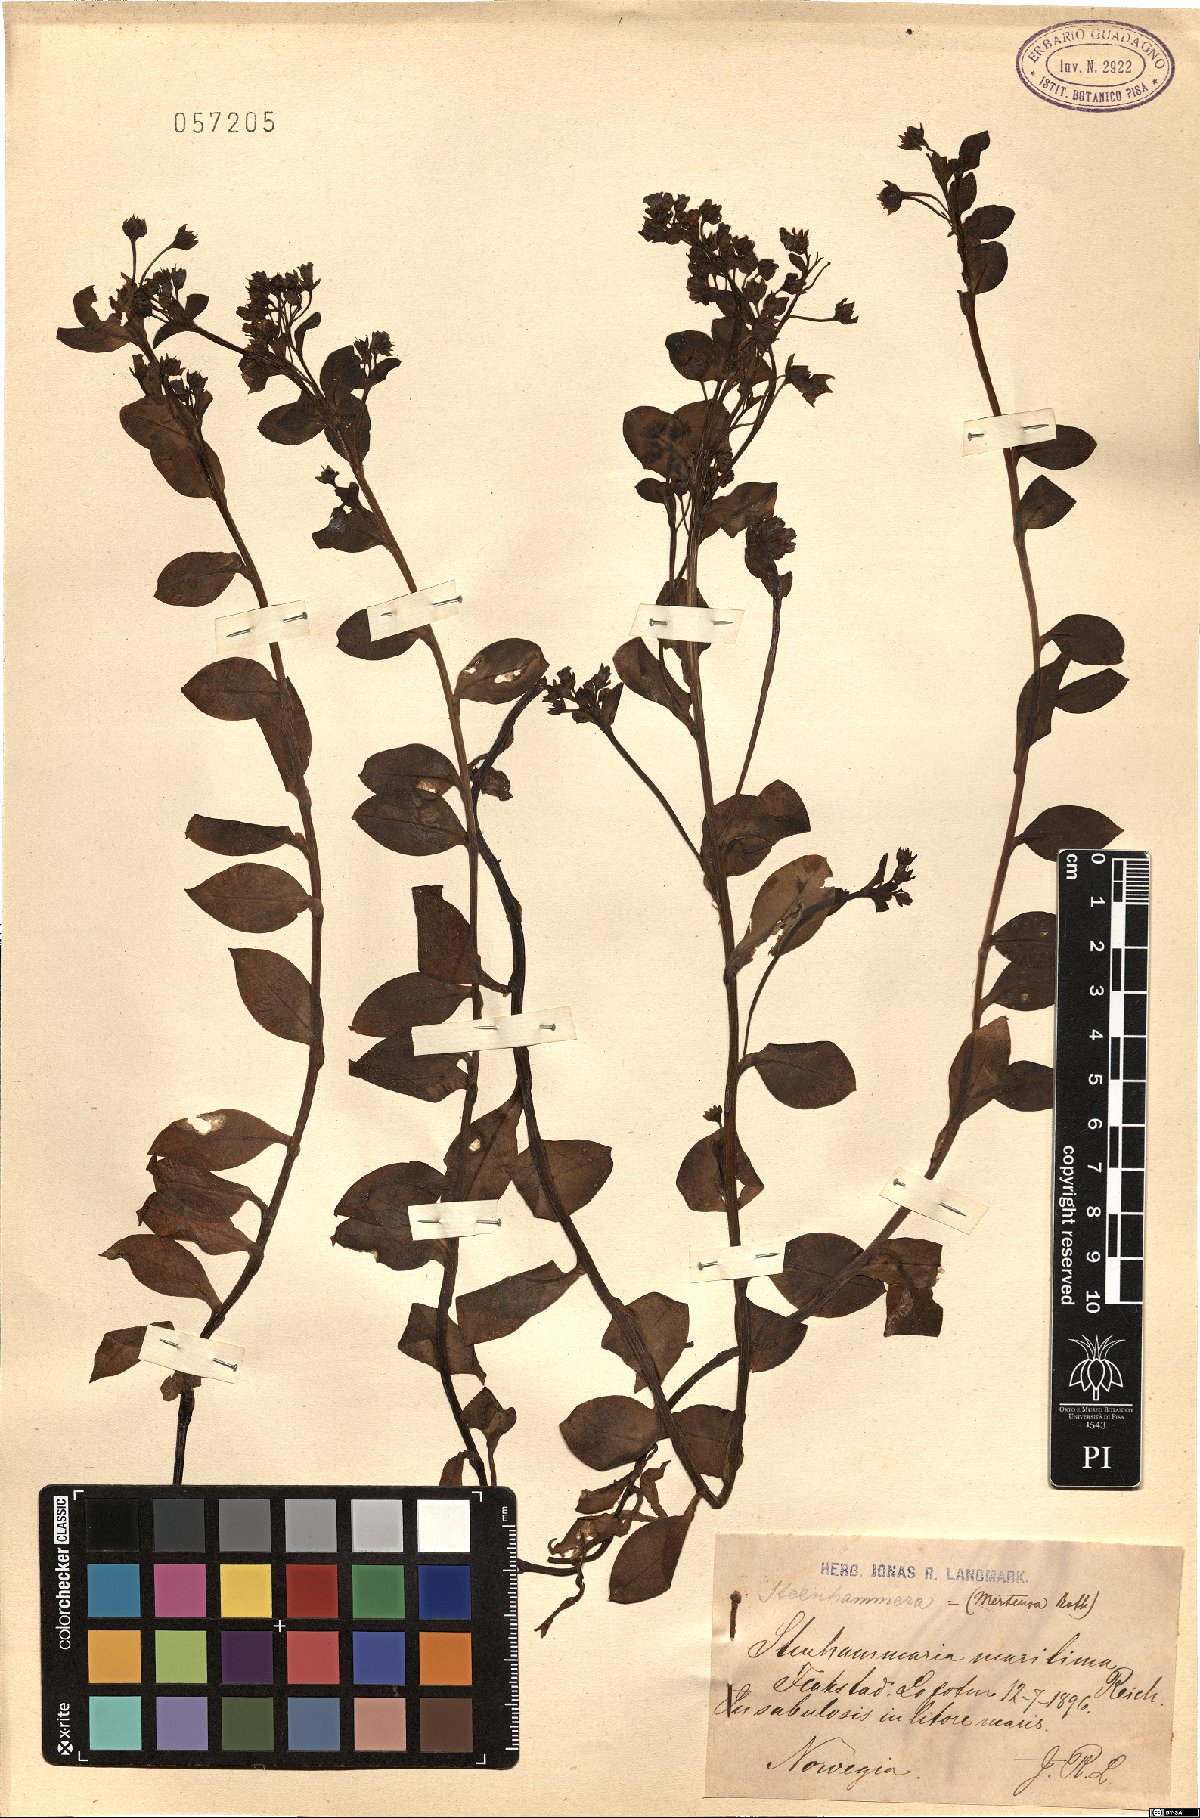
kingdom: Plantae
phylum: Tracheophyta
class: Magnoliopsida
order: Boraginales
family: Boraginaceae
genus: Mertensia
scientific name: Mertensia maritima
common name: Oysterplant
